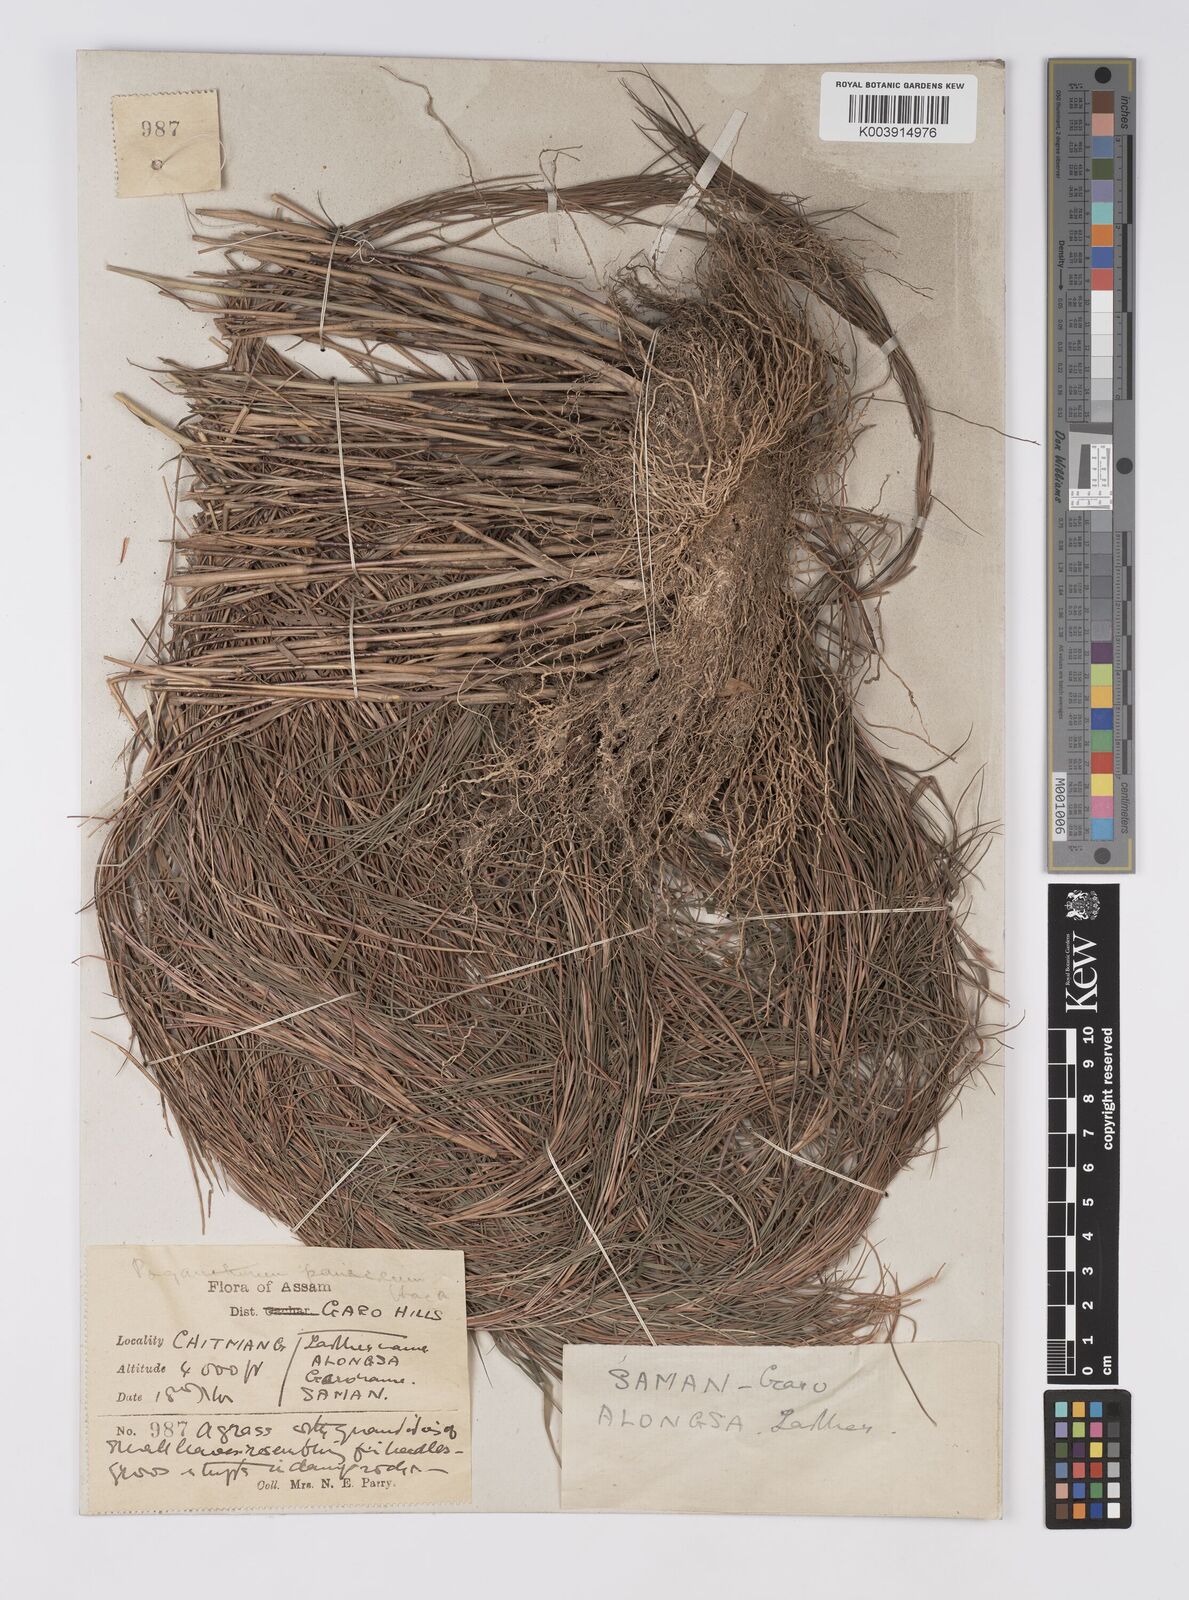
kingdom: Plantae
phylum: Tracheophyta
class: Liliopsida
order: Poales
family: Poaceae
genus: Pogonatherum
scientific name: Pogonatherum paniceum
